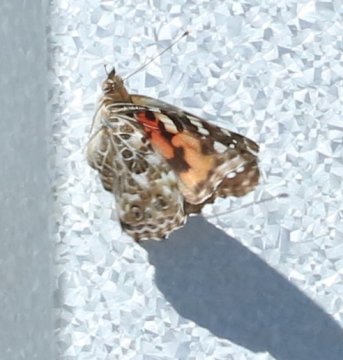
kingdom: Animalia
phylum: Arthropoda
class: Insecta
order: Lepidoptera
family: Nymphalidae
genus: Vanessa
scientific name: Vanessa cardui
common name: Painted Lady
